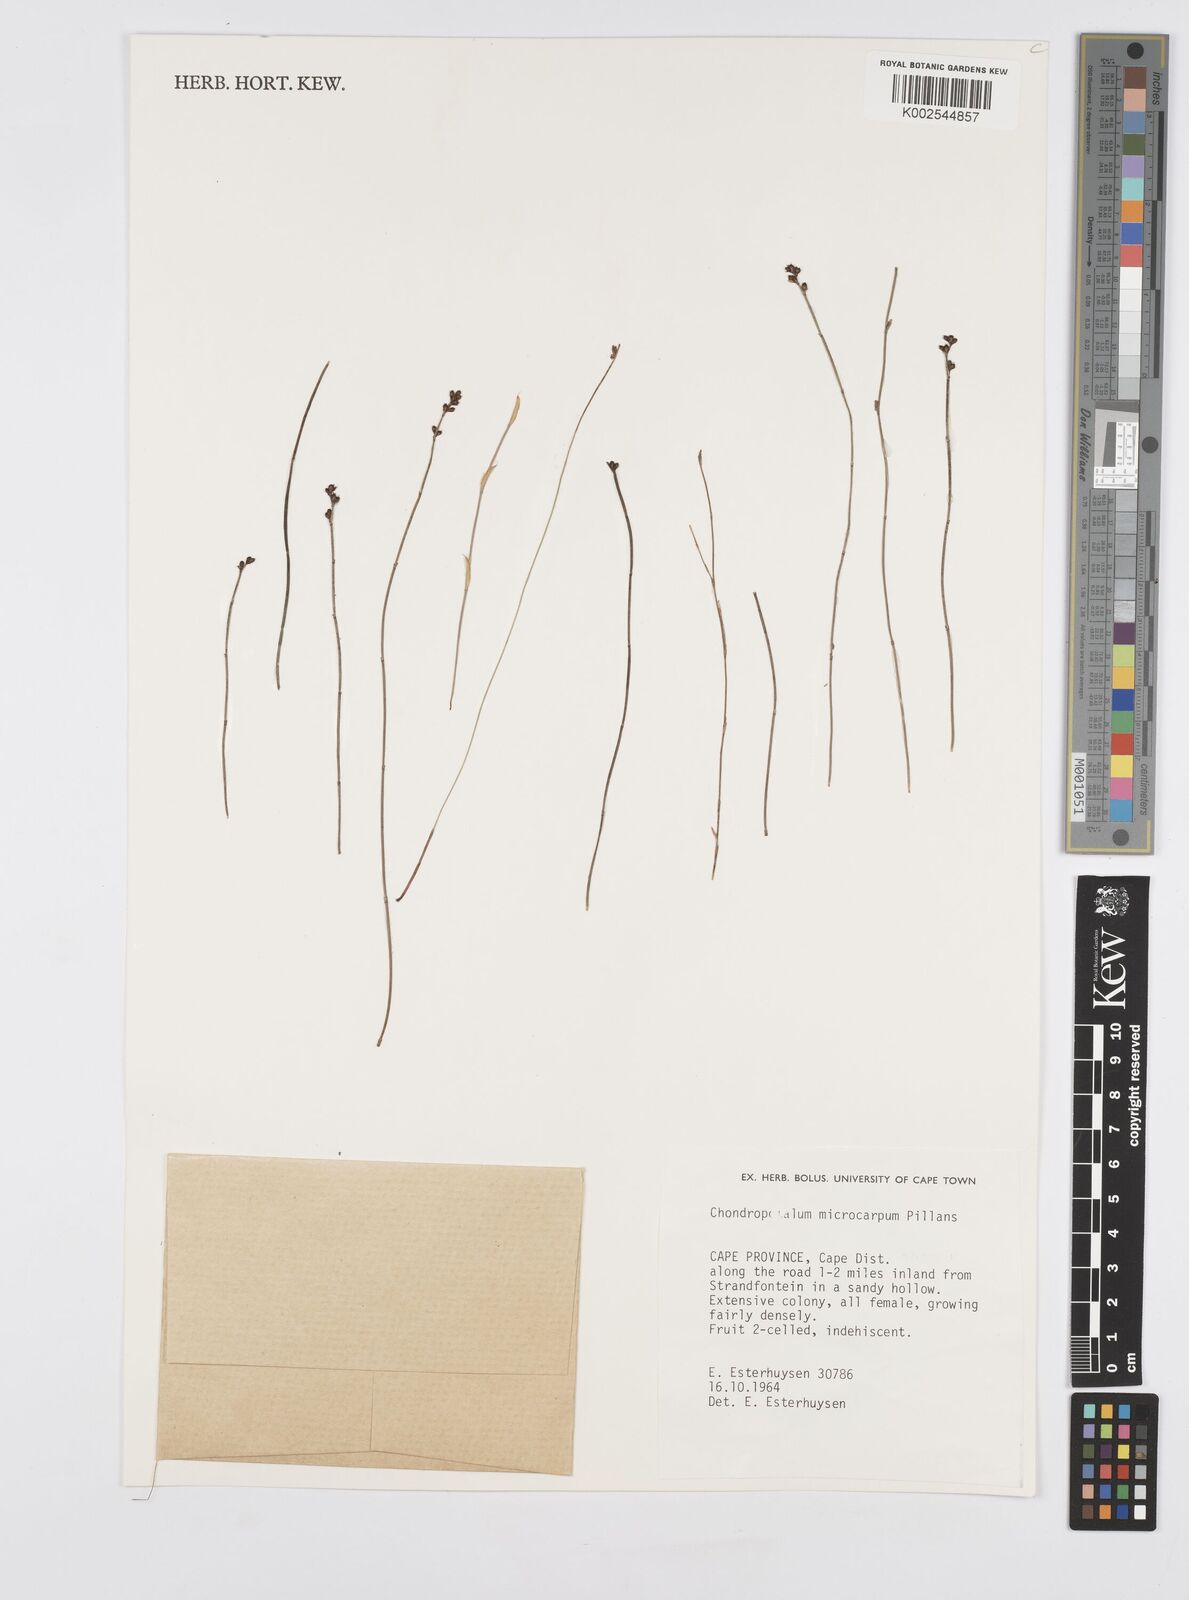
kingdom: Plantae
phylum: Tracheophyta
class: Liliopsida
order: Poales
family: Restionaceae
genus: Elegia
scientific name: Elegia microcarpa
